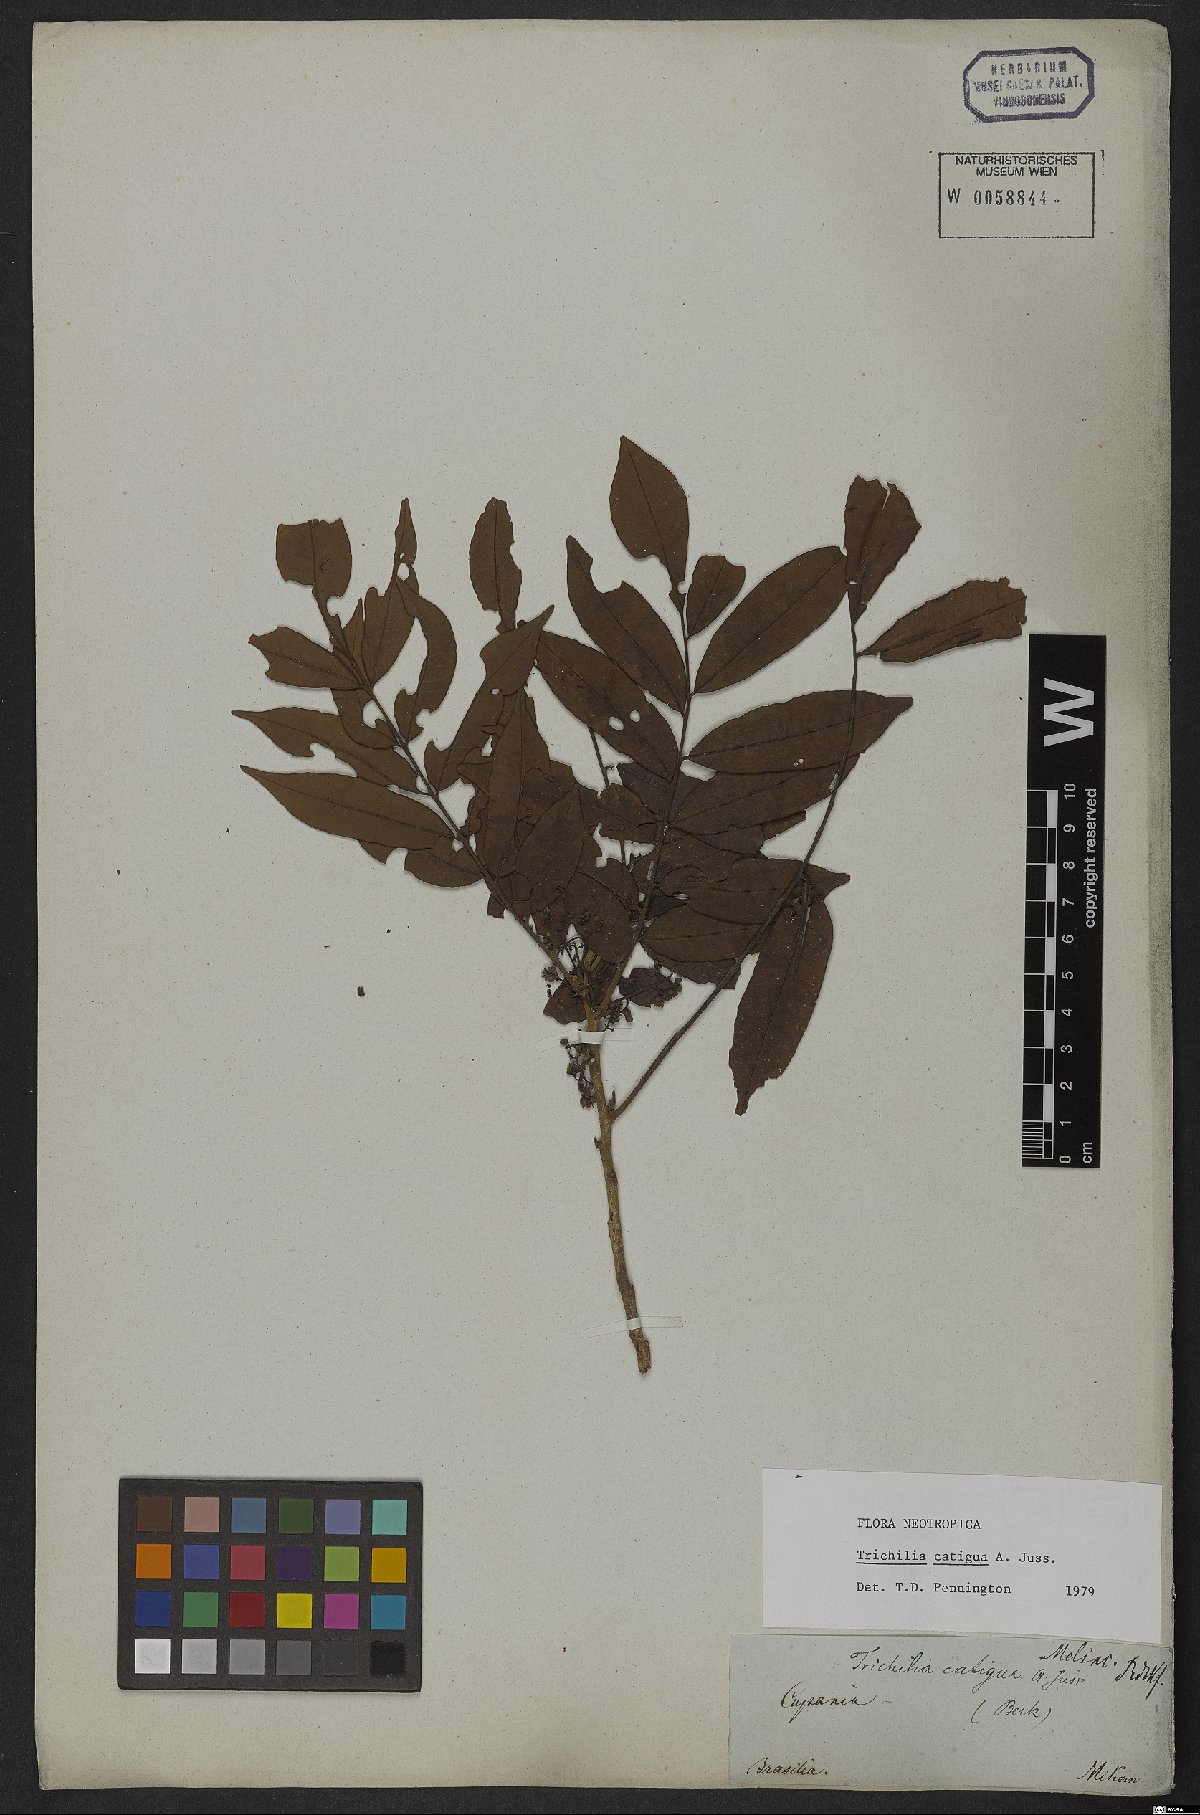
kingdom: Plantae
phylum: Tracheophyta
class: Magnoliopsida
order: Sapindales
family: Meliaceae
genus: Trichilia
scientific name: Trichilia catigua
